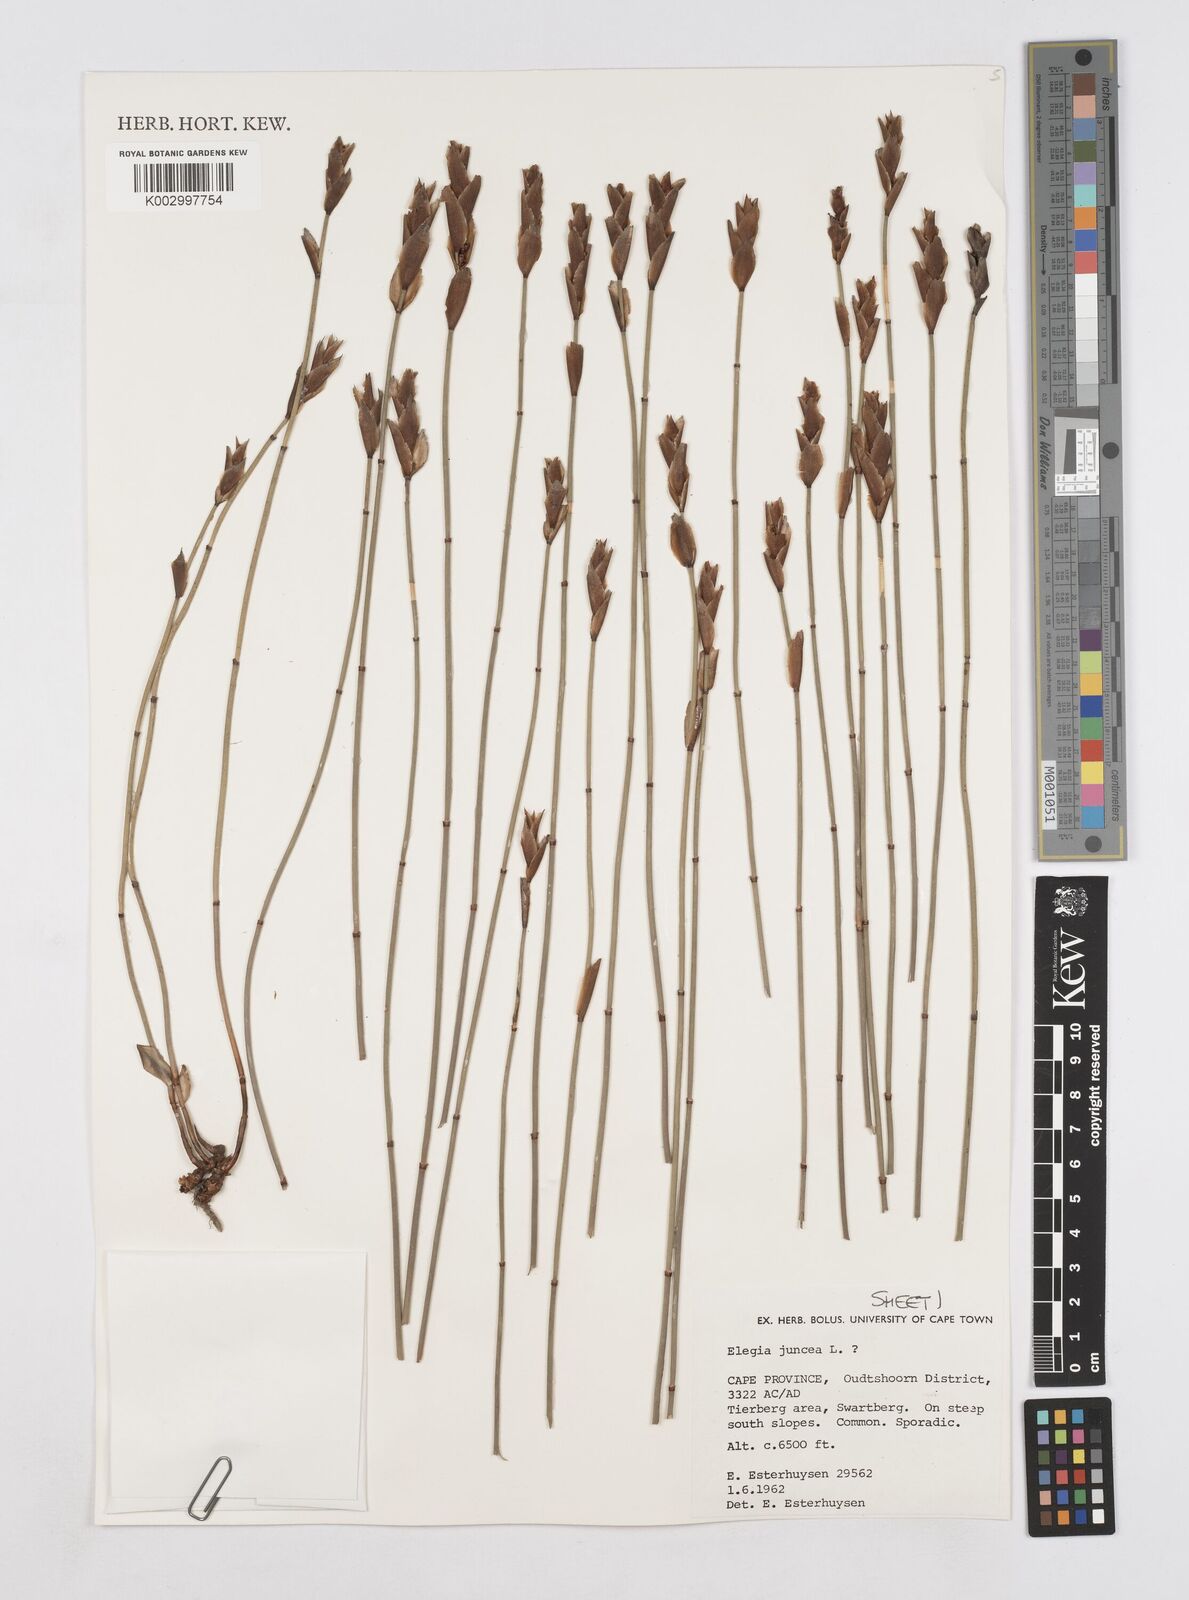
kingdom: Plantae
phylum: Tracheophyta
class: Liliopsida
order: Poales
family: Restionaceae
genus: Elegia
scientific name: Elegia juncea
